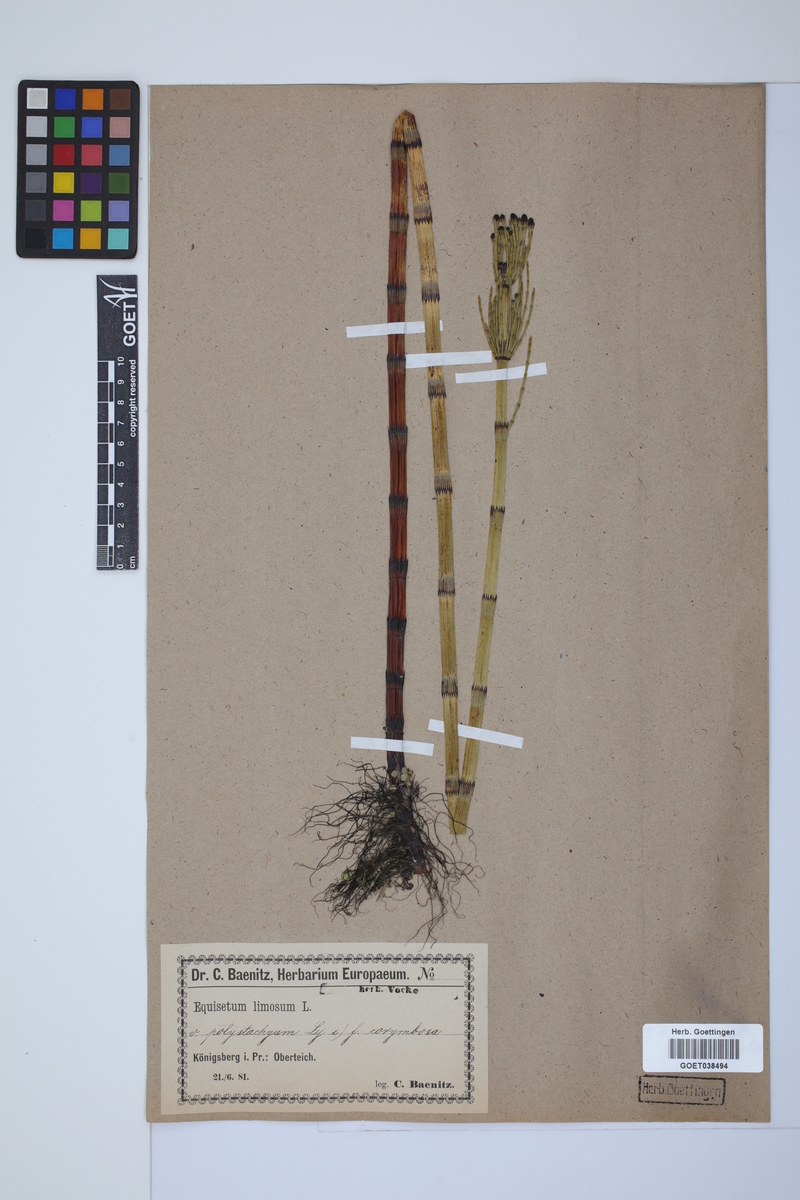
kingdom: Plantae
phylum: Tracheophyta
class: Polypodiopsida
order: Equisetales
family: Equisetaceae
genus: Equisetum
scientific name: Equisetum fluviatile
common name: Water horsetail
